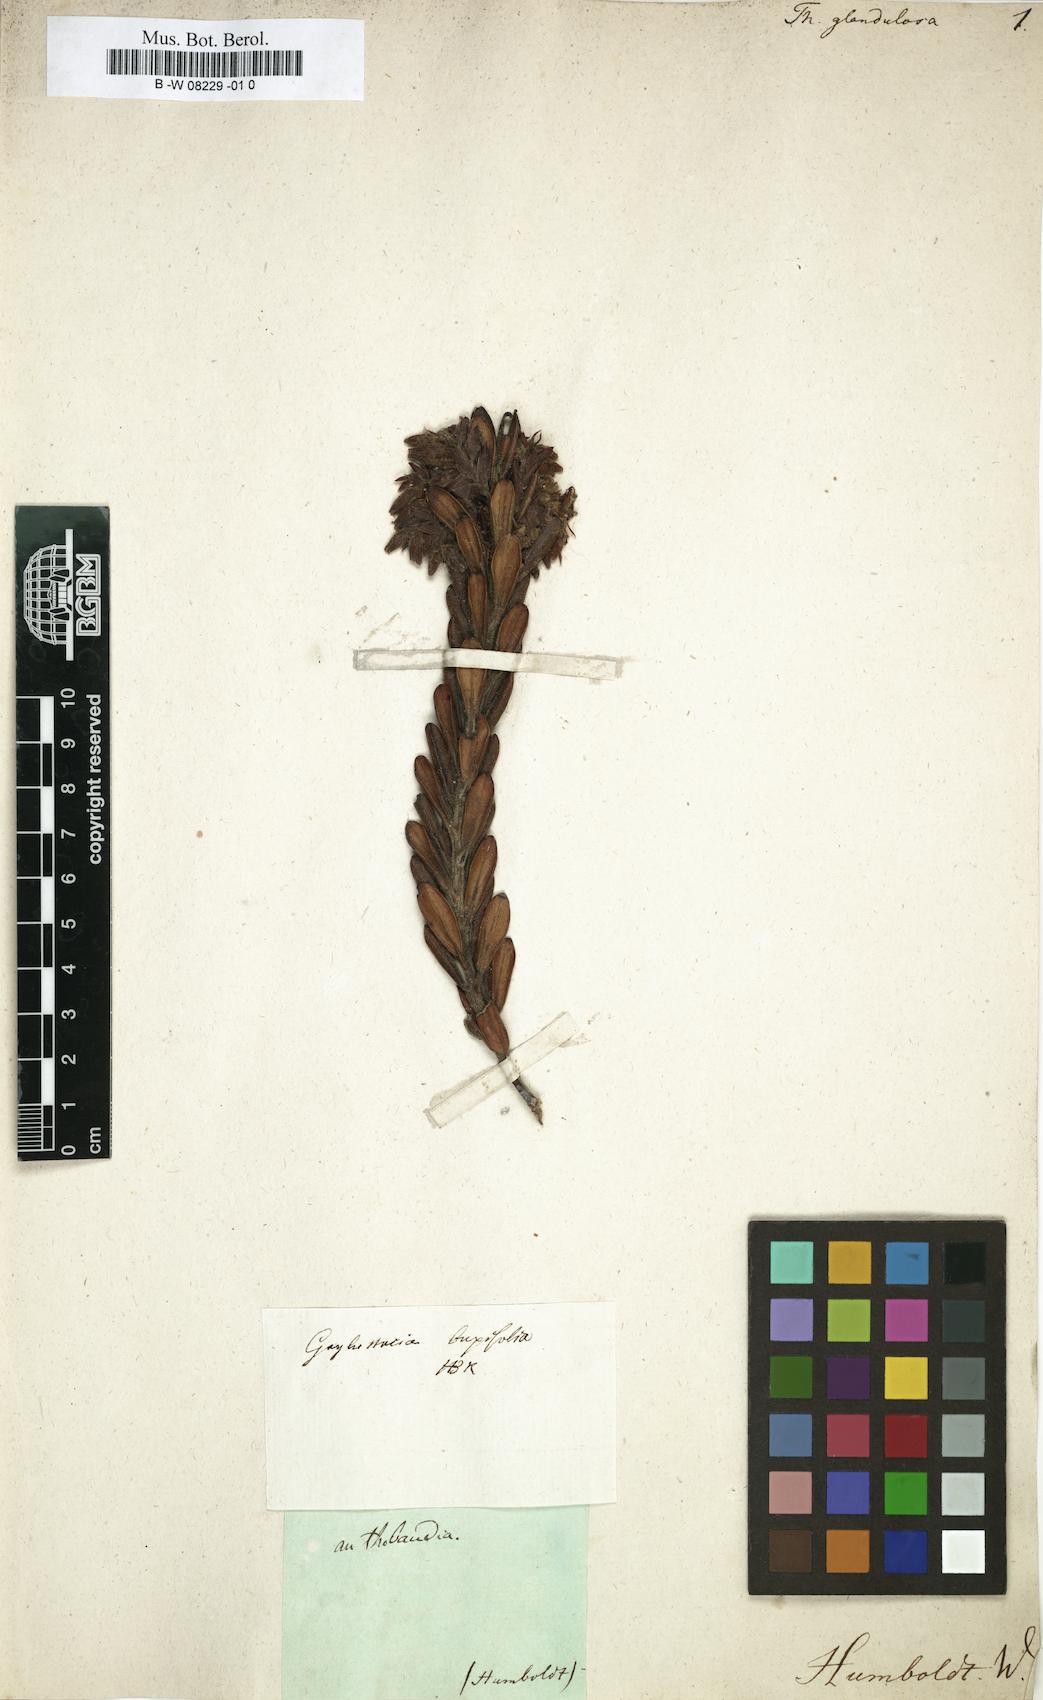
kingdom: Plantae
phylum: Tracheophyta
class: Magnoliopsida
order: Ericales
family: Ericaceae
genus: Gaylussacia
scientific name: Gaylussacia
